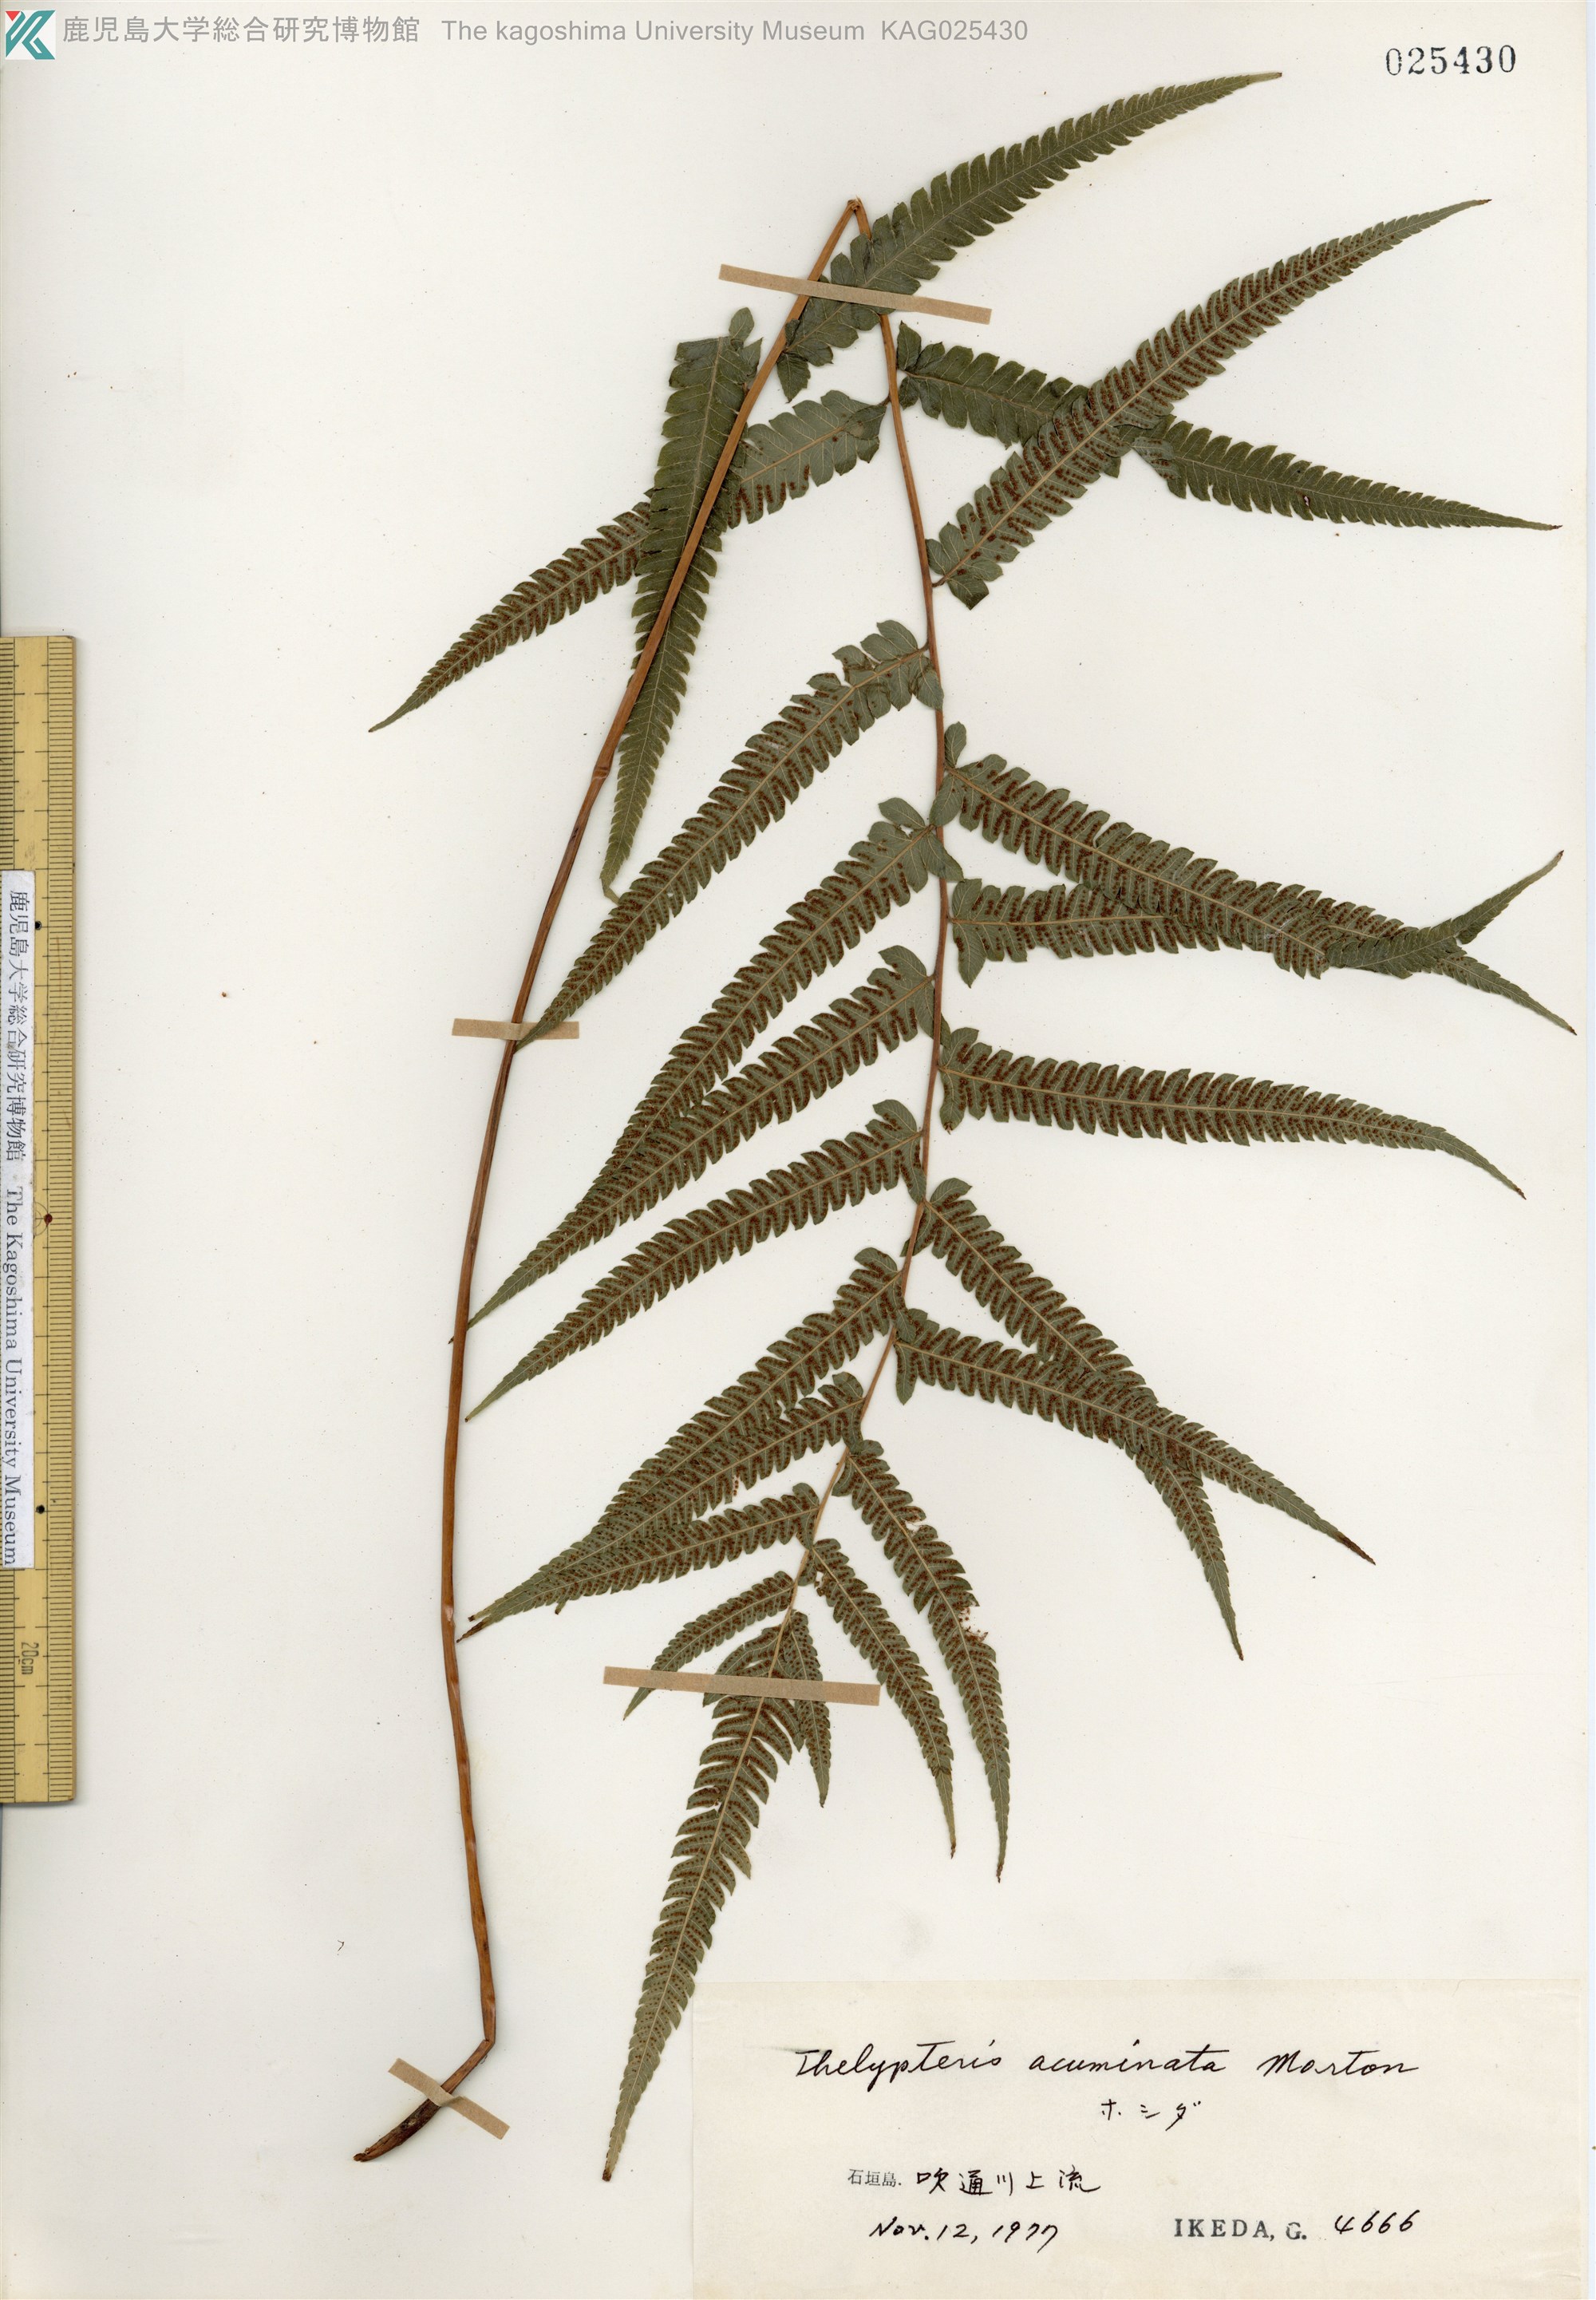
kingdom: Plantae
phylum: Tracheophyta
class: Polypodiopsida
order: Polypodiales
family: Thelypteridaceae
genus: Christella
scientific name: Christella acuminata
